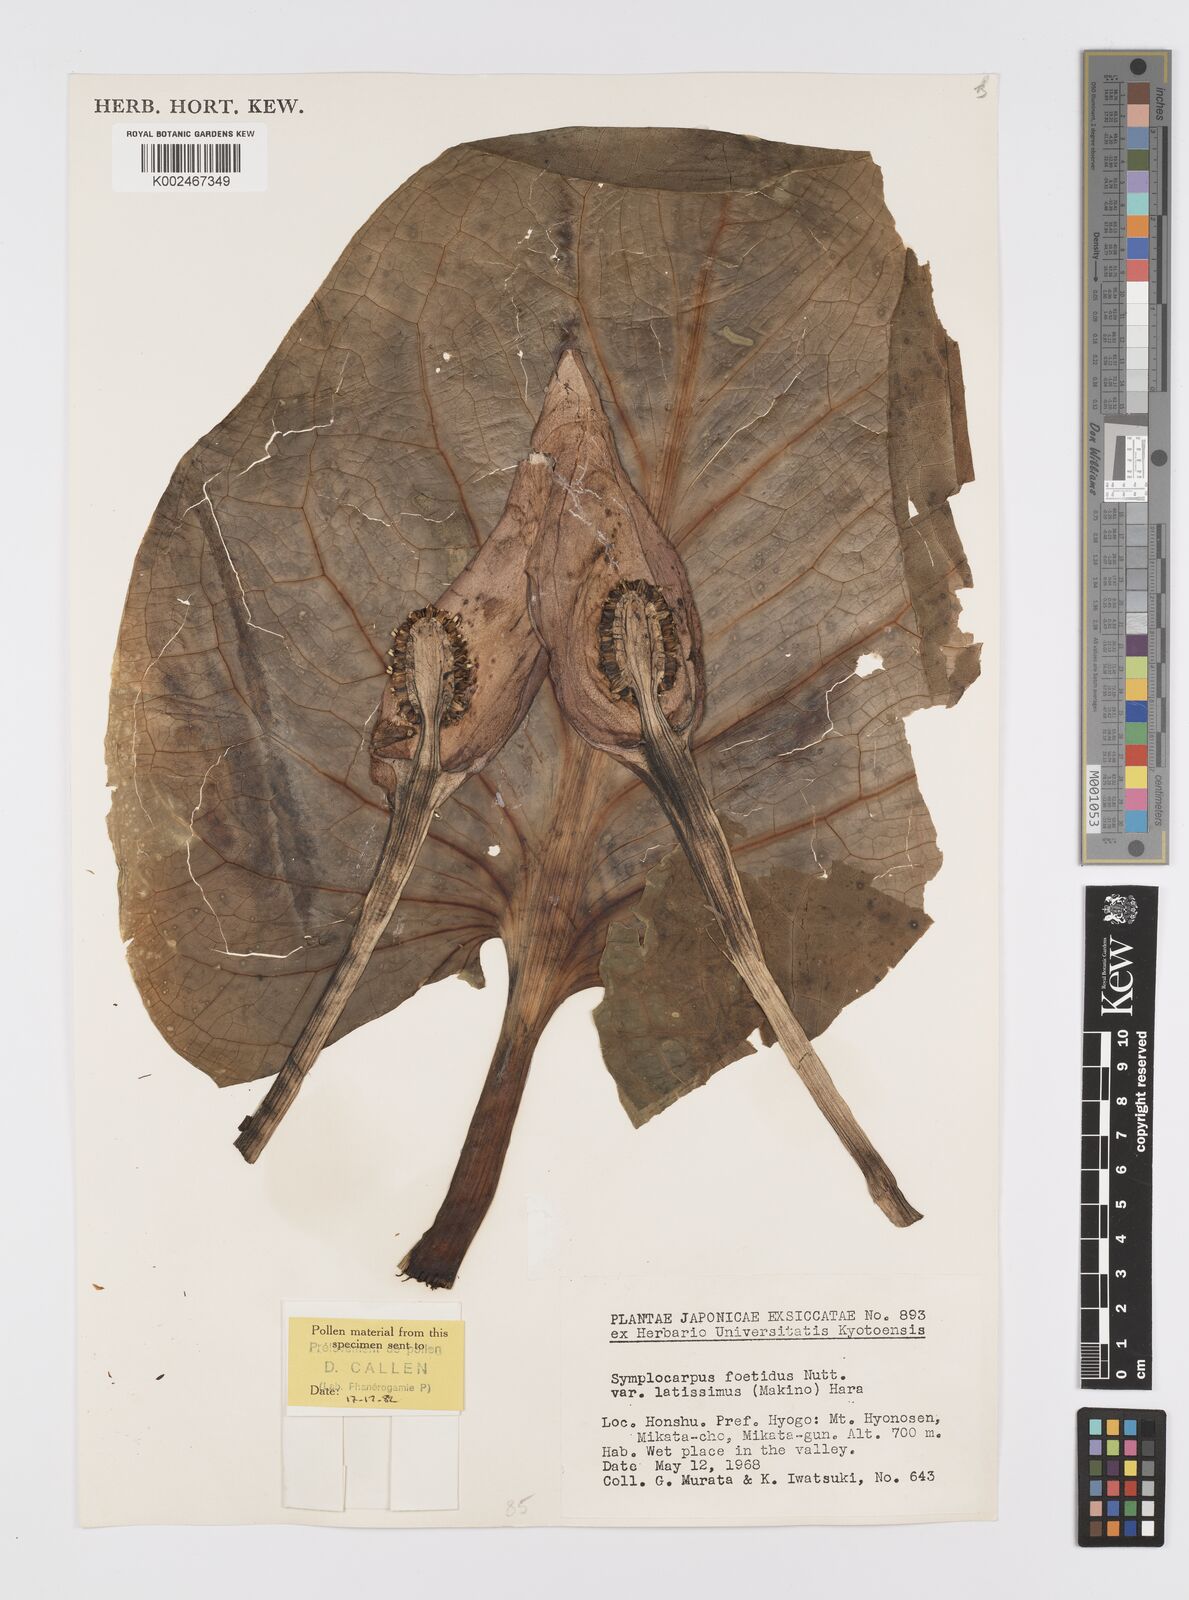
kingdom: Plantae
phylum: Tracheophyta
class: Liliopsida
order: Alismatales
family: Araceae
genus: Symplocarpus
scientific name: Symplocarpus nipponicus
